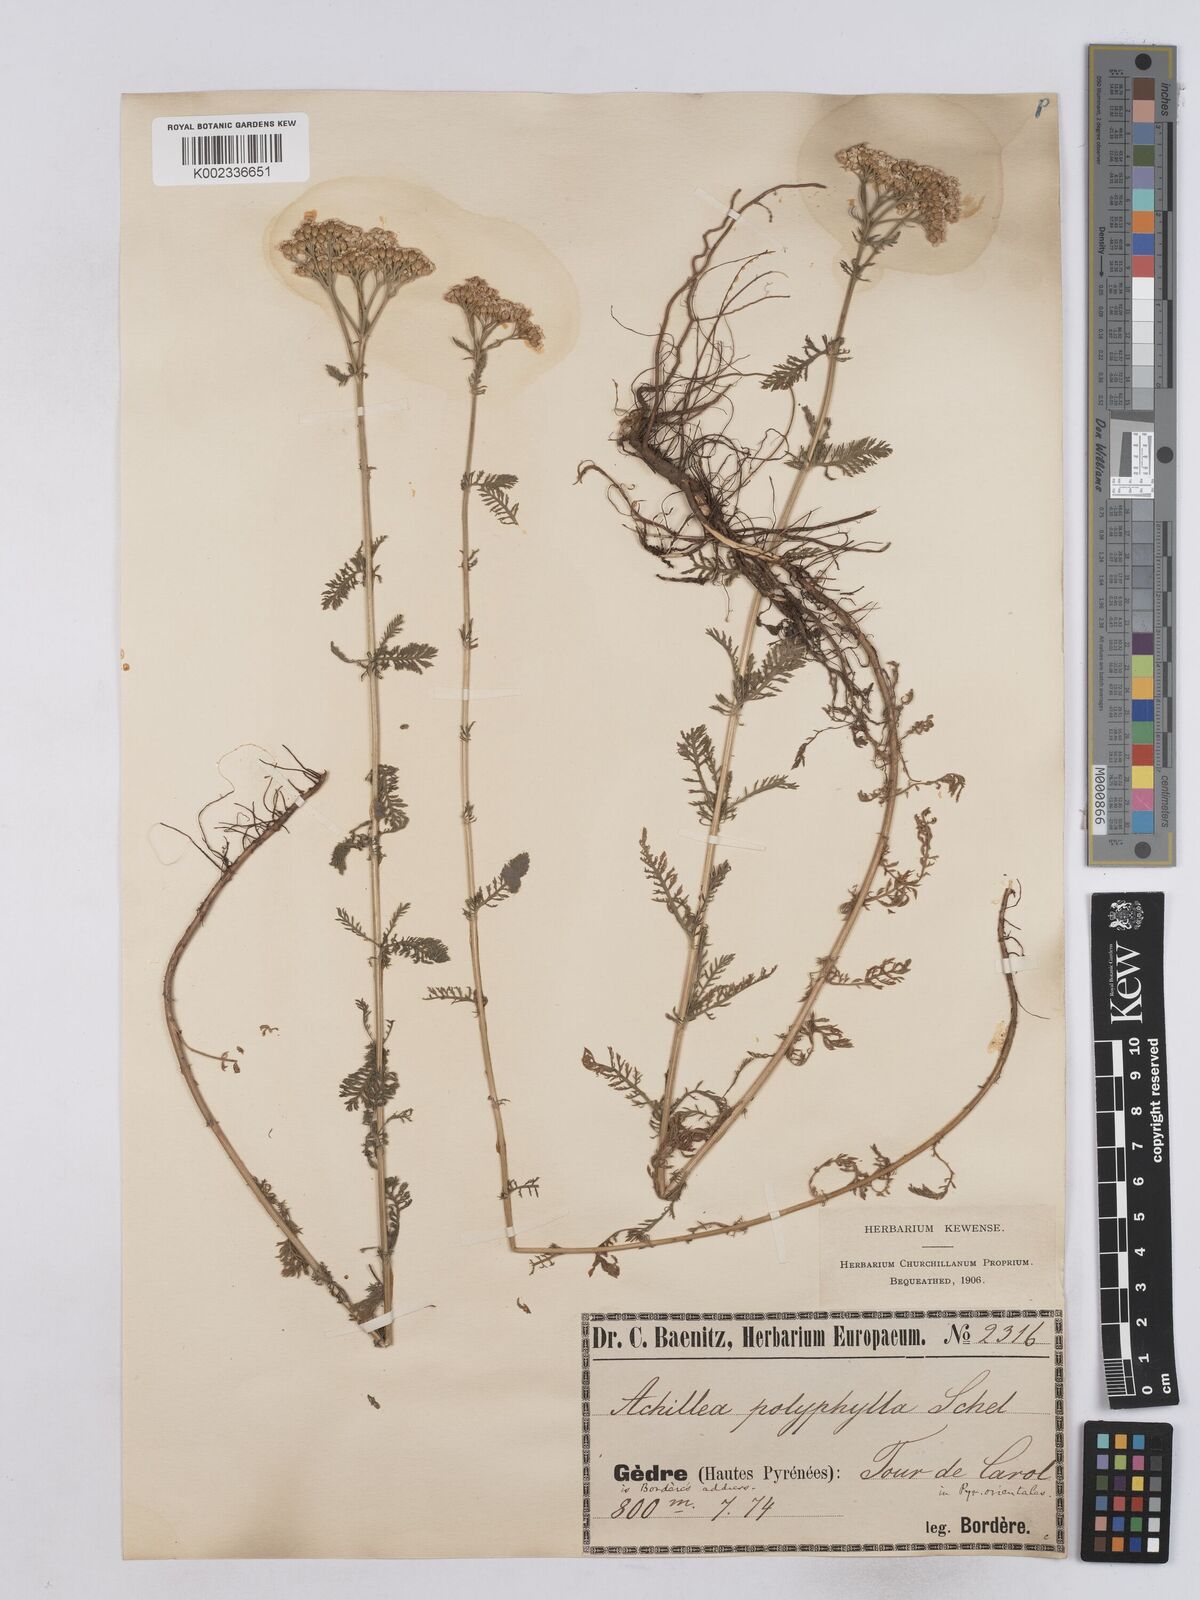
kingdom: Plantae
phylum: Tracheophyta
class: Magnoliopsida
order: Asterales
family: Asteraceae
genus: Achillea
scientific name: Achillea setacea
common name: Bristly yarrow
